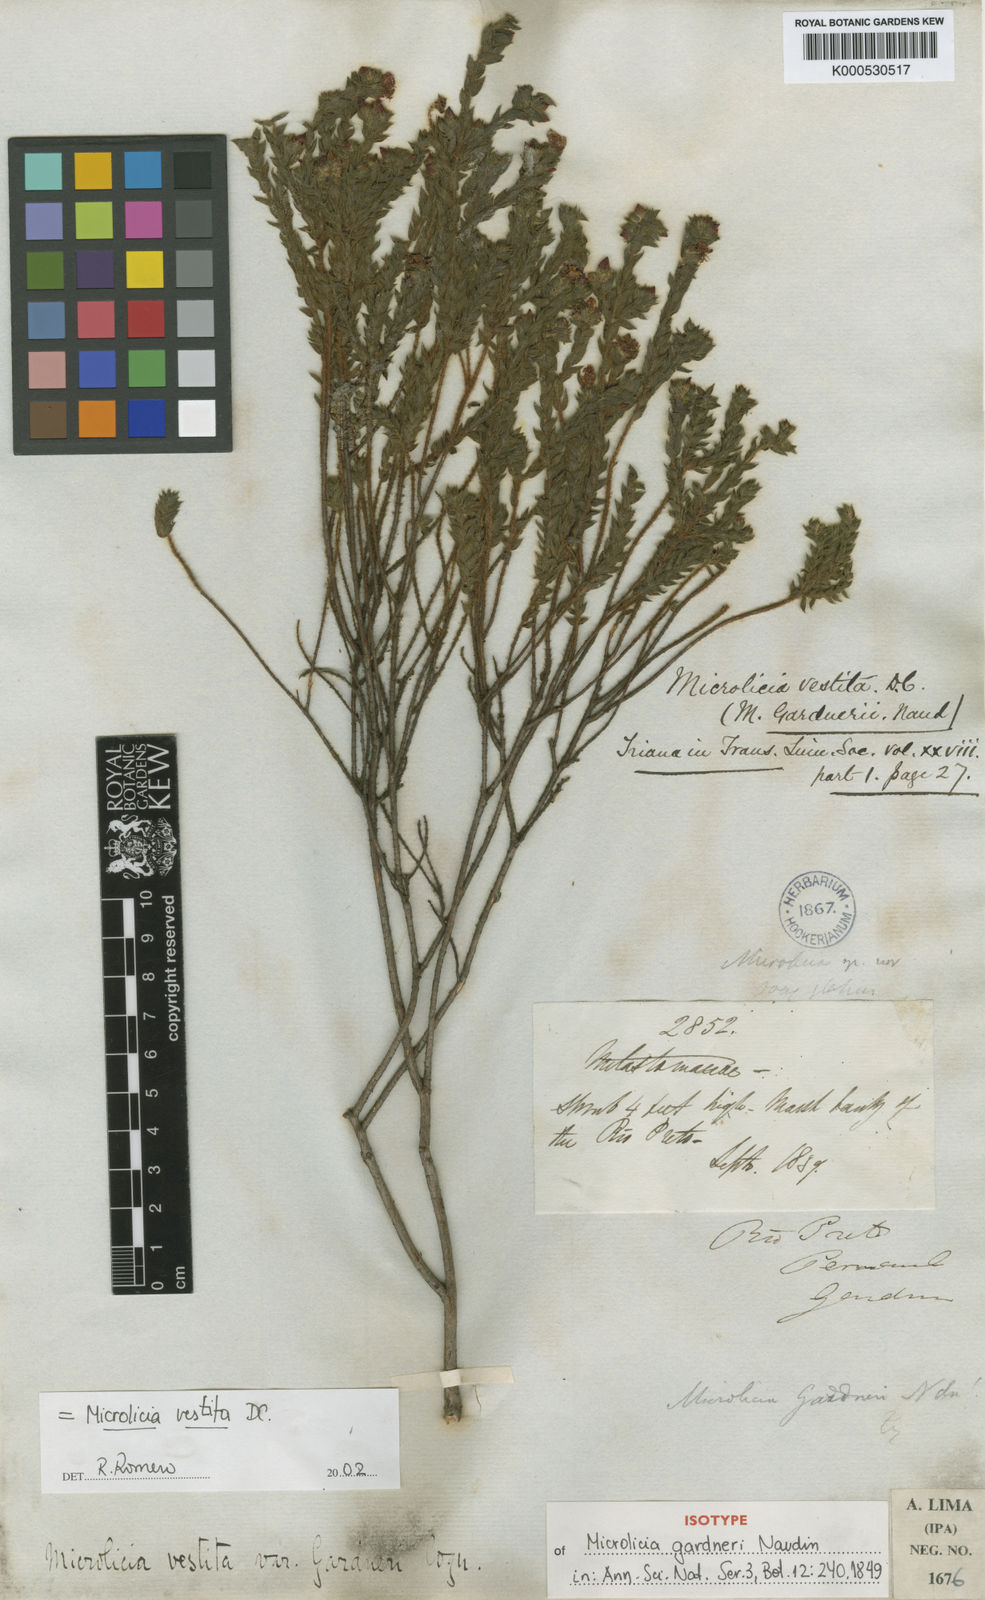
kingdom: Plantae
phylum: Tracheophyta
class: Magnoliopsida
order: Myrtales
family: Melastomataceae
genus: Microlicia
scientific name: Microlicia vestita
